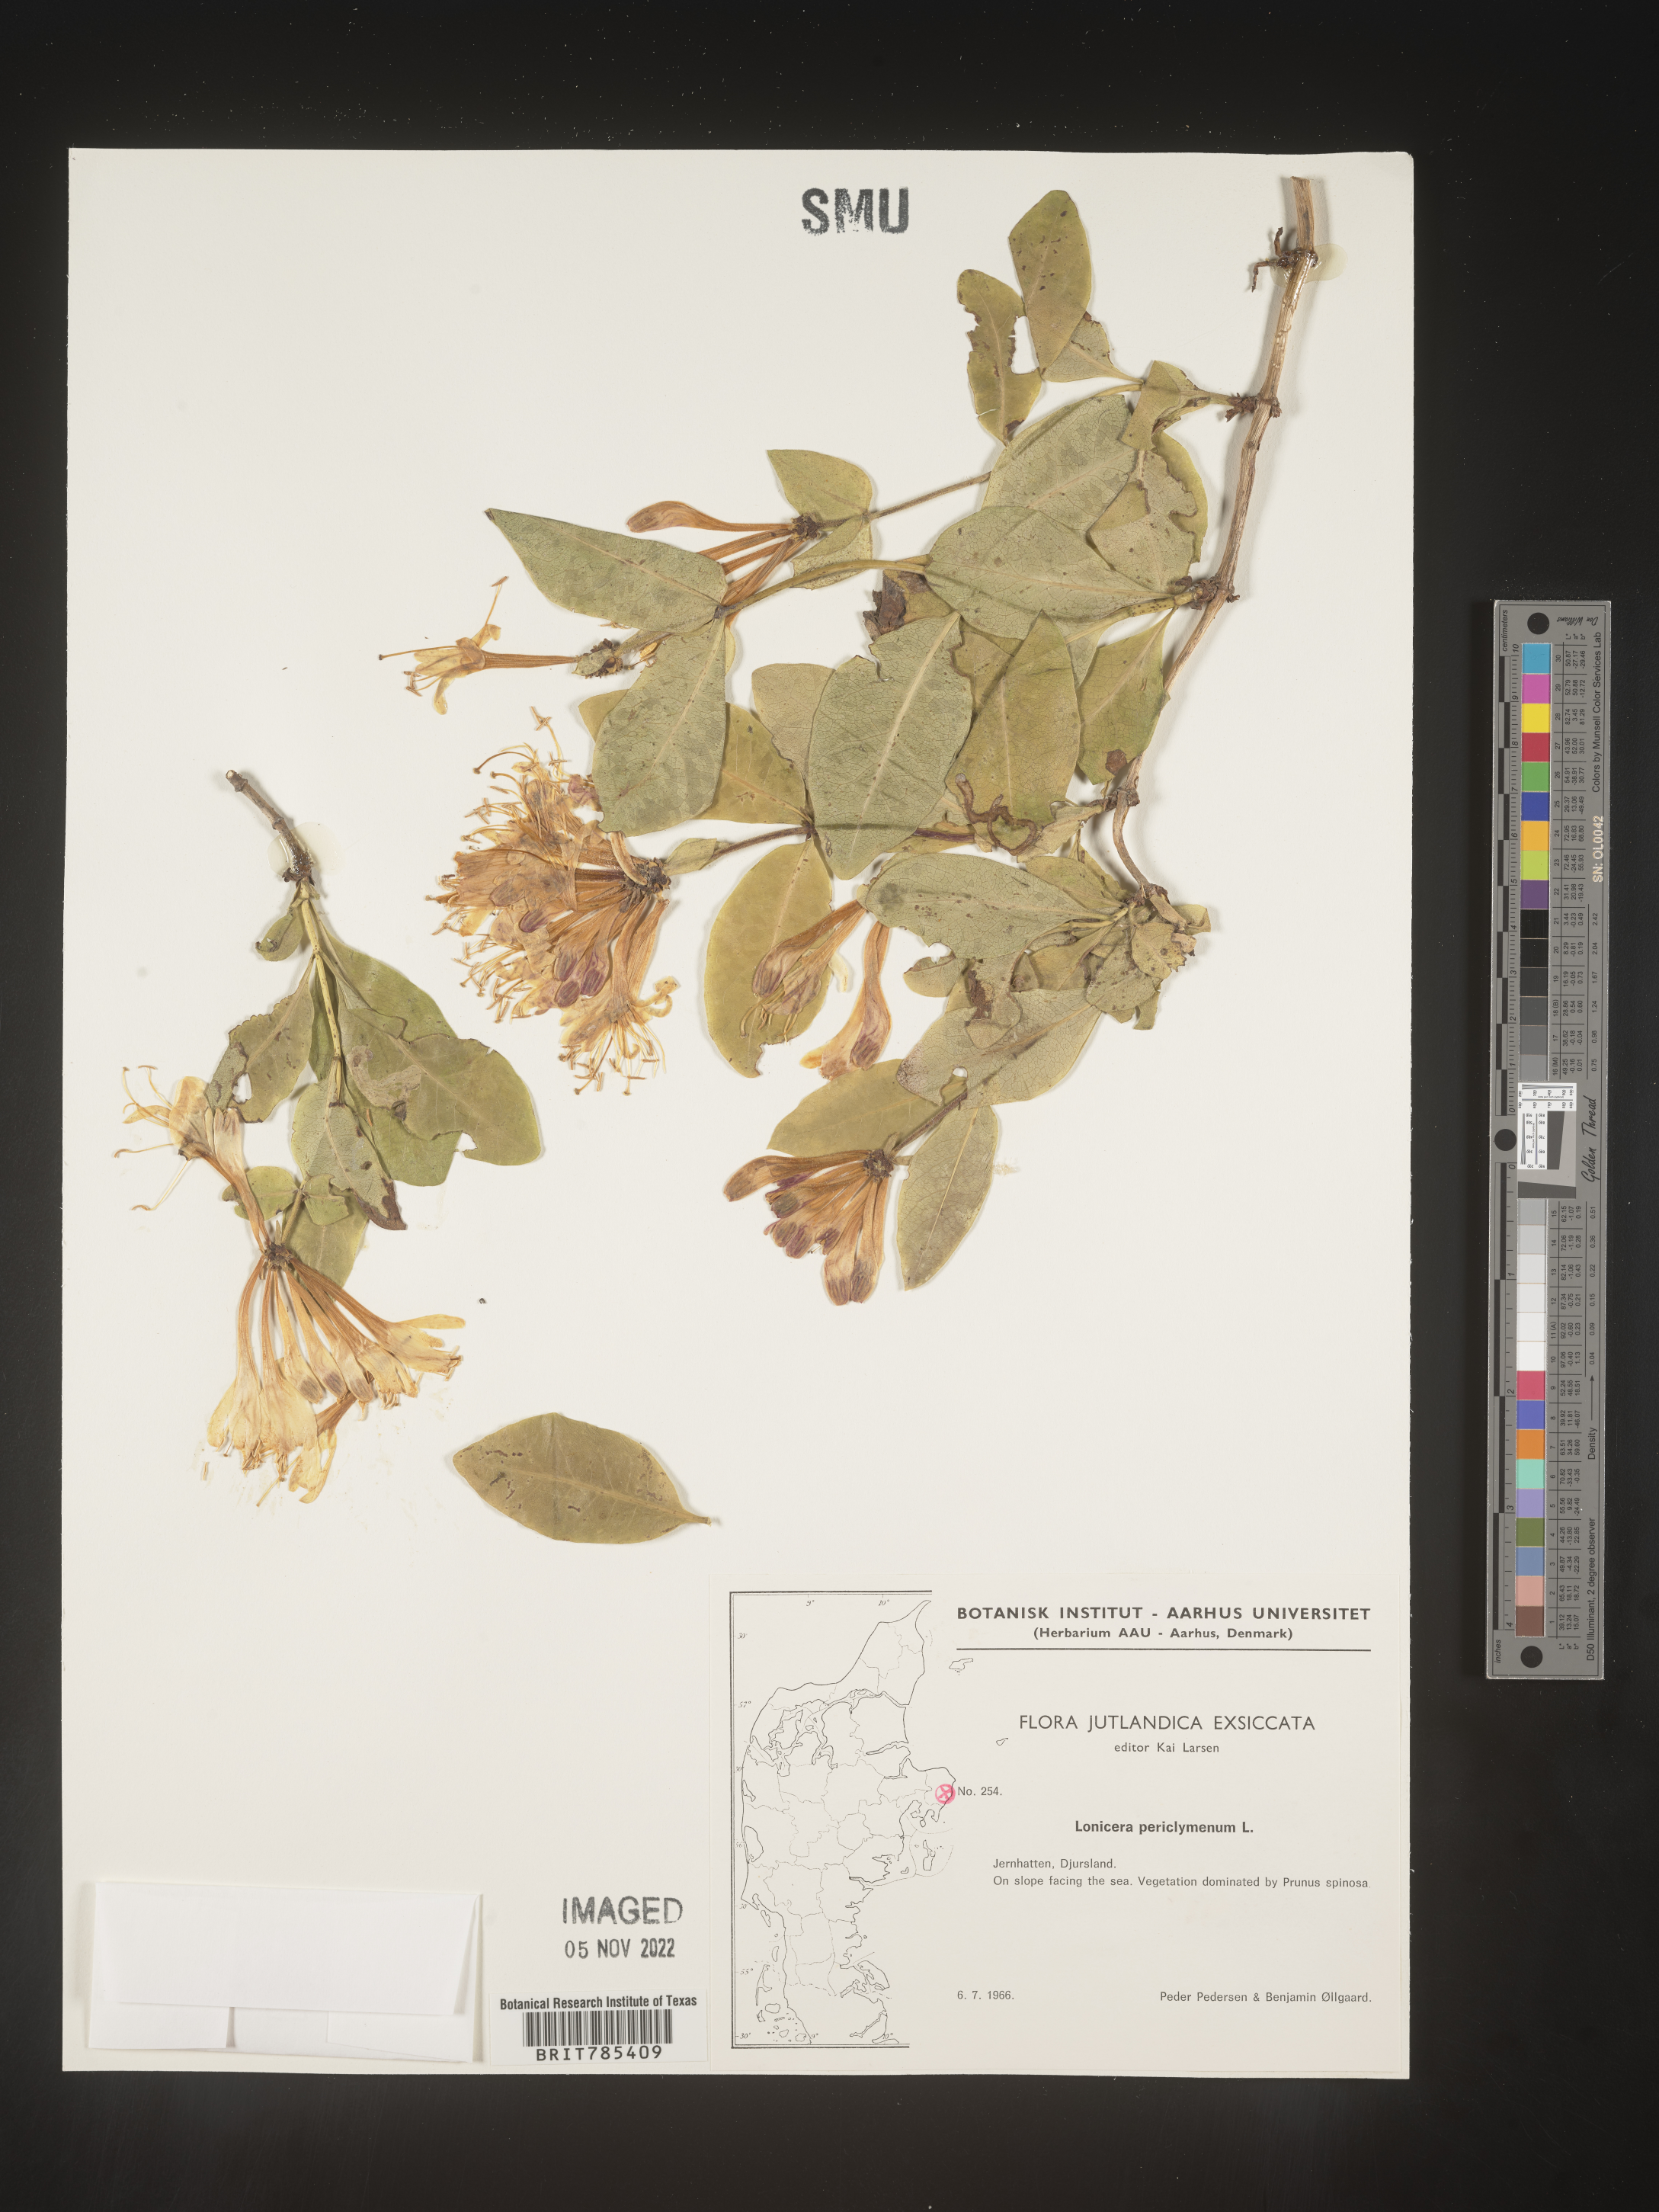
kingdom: Plantae
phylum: Tracheophyta
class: Magnoliopsida
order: Dipsacales
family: Caprifoliaceae
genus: Lonicera
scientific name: Lonicera
